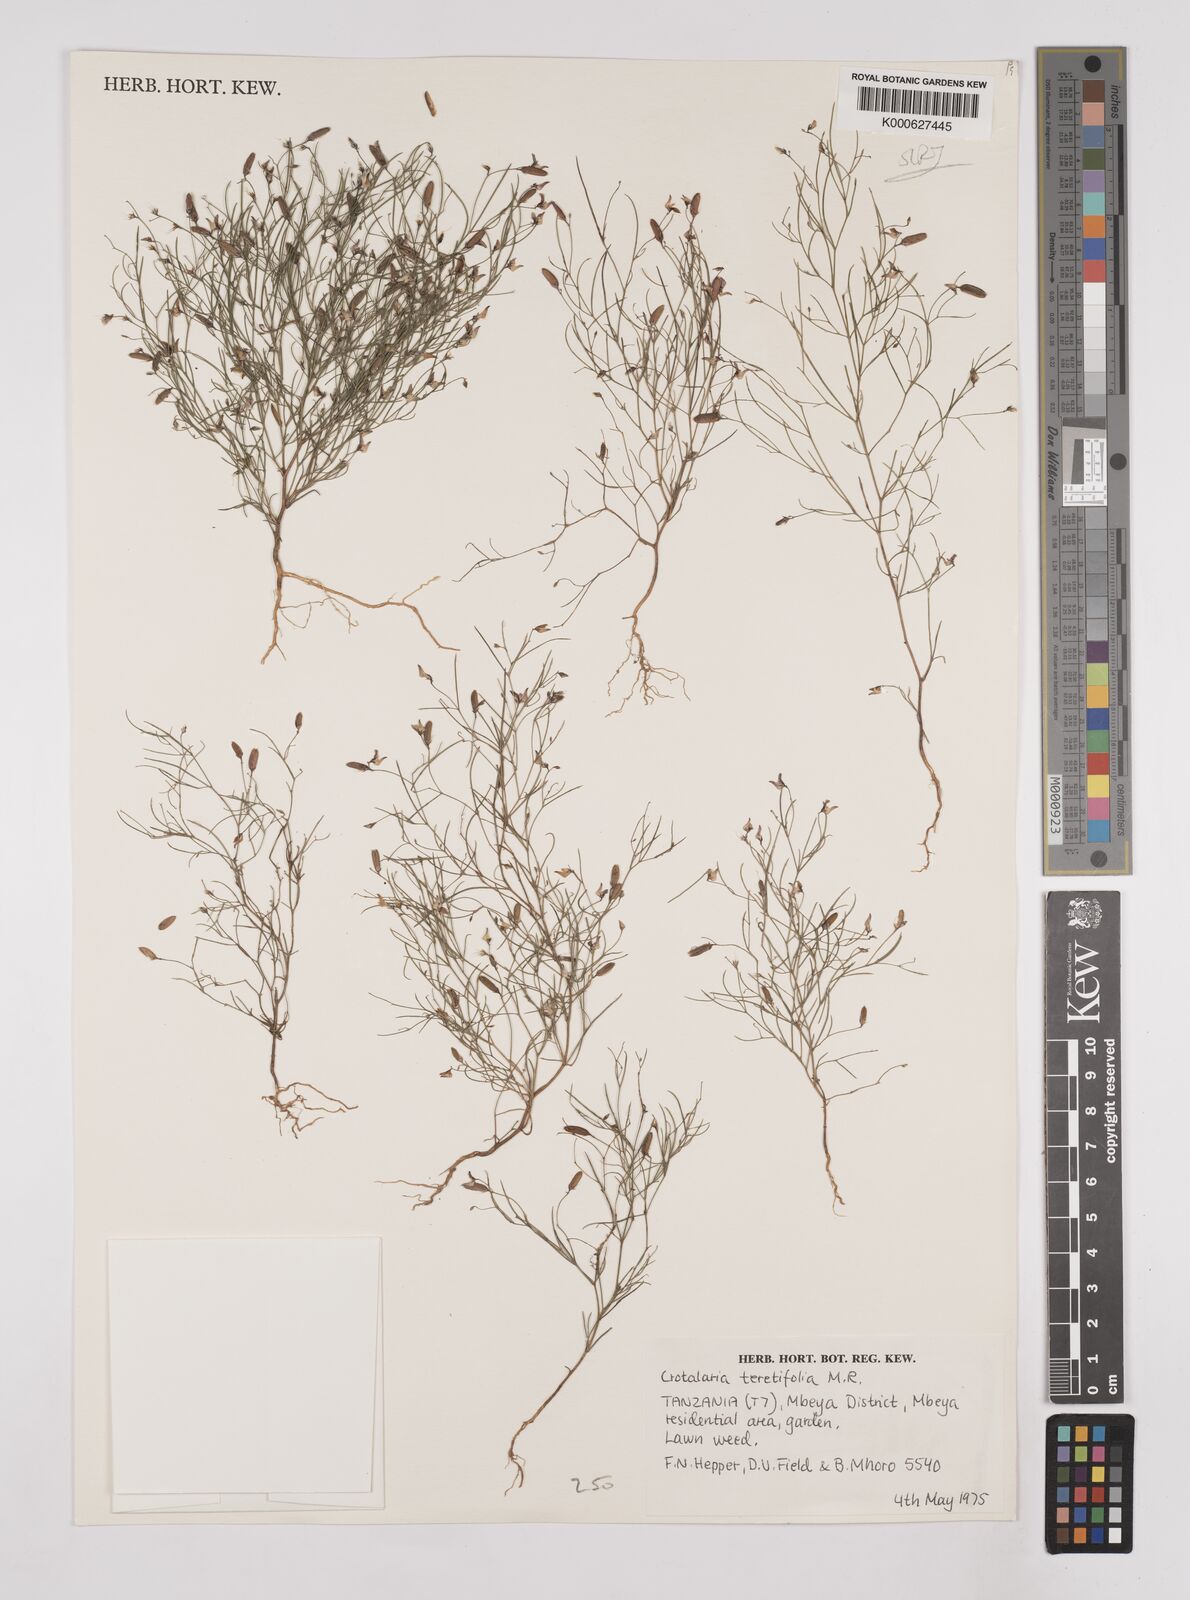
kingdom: Plantae
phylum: Tracheophyta
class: Magnoliopsida
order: Fabales
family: Fabaceae
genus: Crotalaria
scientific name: Crotalaria teretifolia
